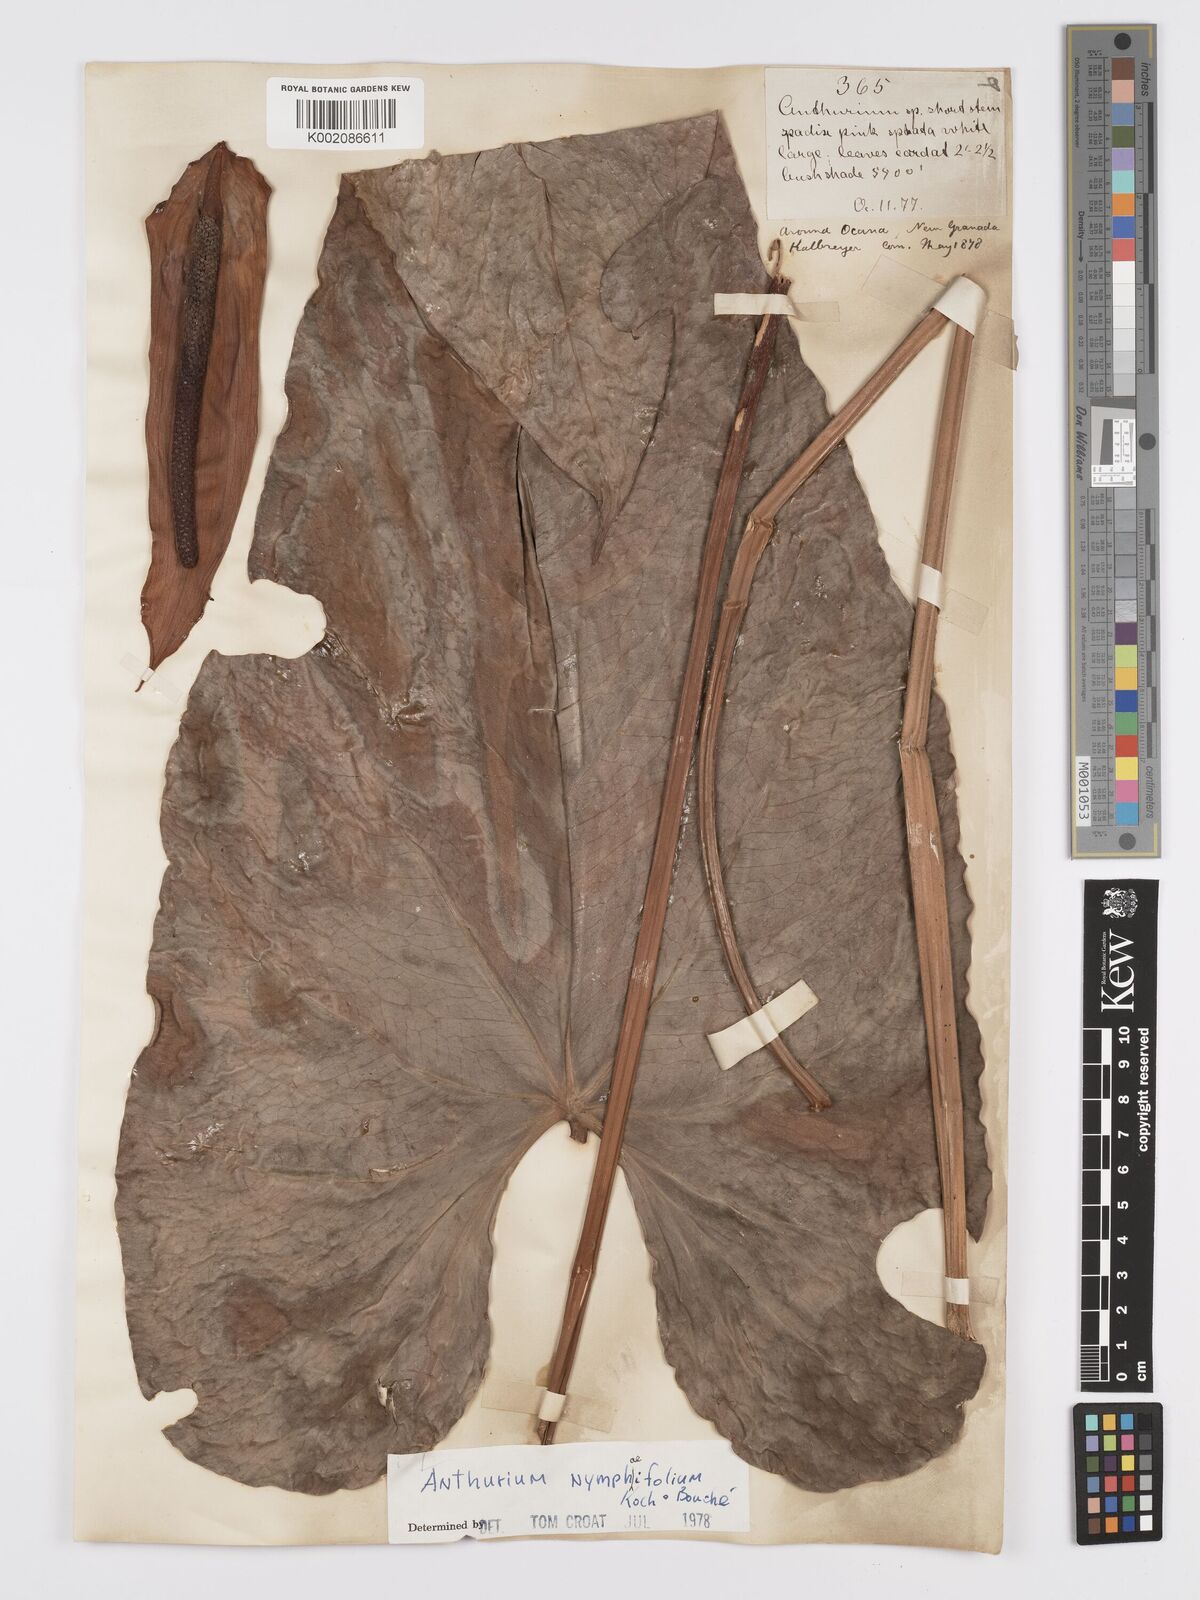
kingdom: Plantae
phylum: Tracheophyta
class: Liliopsida
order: Alismatales
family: Araceae
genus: Anthurium
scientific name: Anthurium nymphaeifolium
